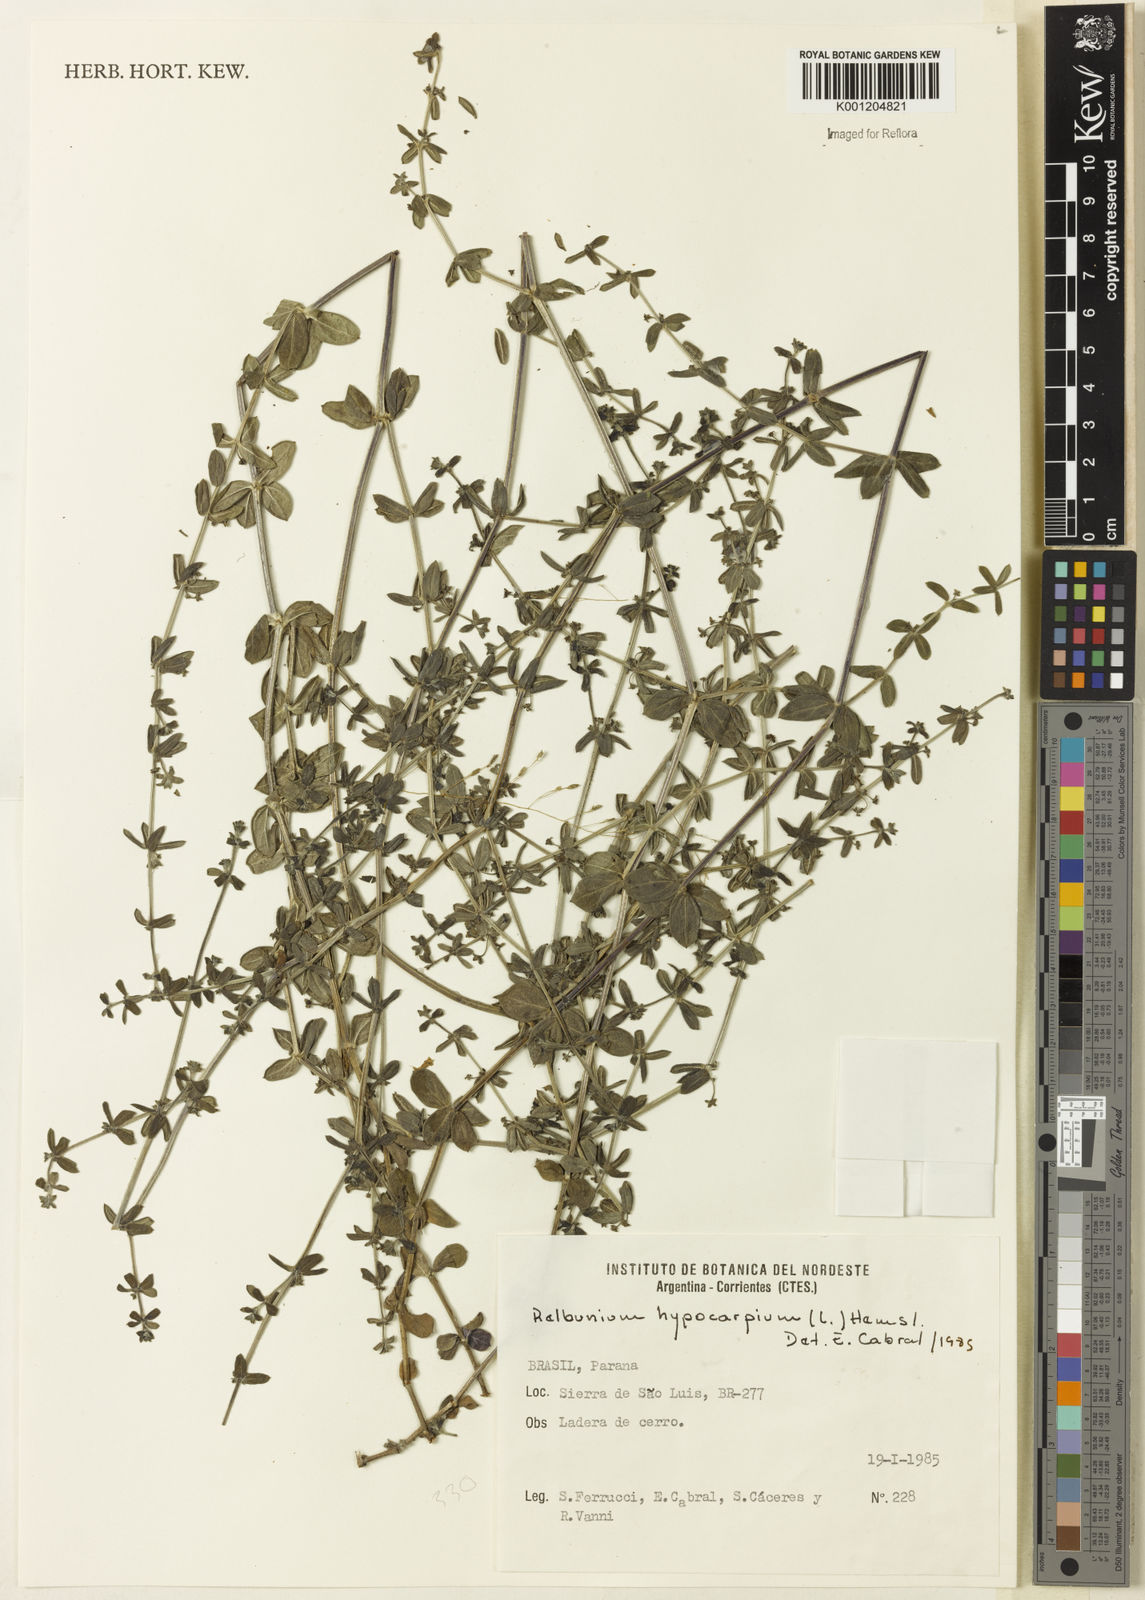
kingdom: Plantae
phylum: Tracheophyta
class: Magnoliopsida
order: Gentianales
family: Rubiaceae
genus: Galium
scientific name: Galium hypocarpium
